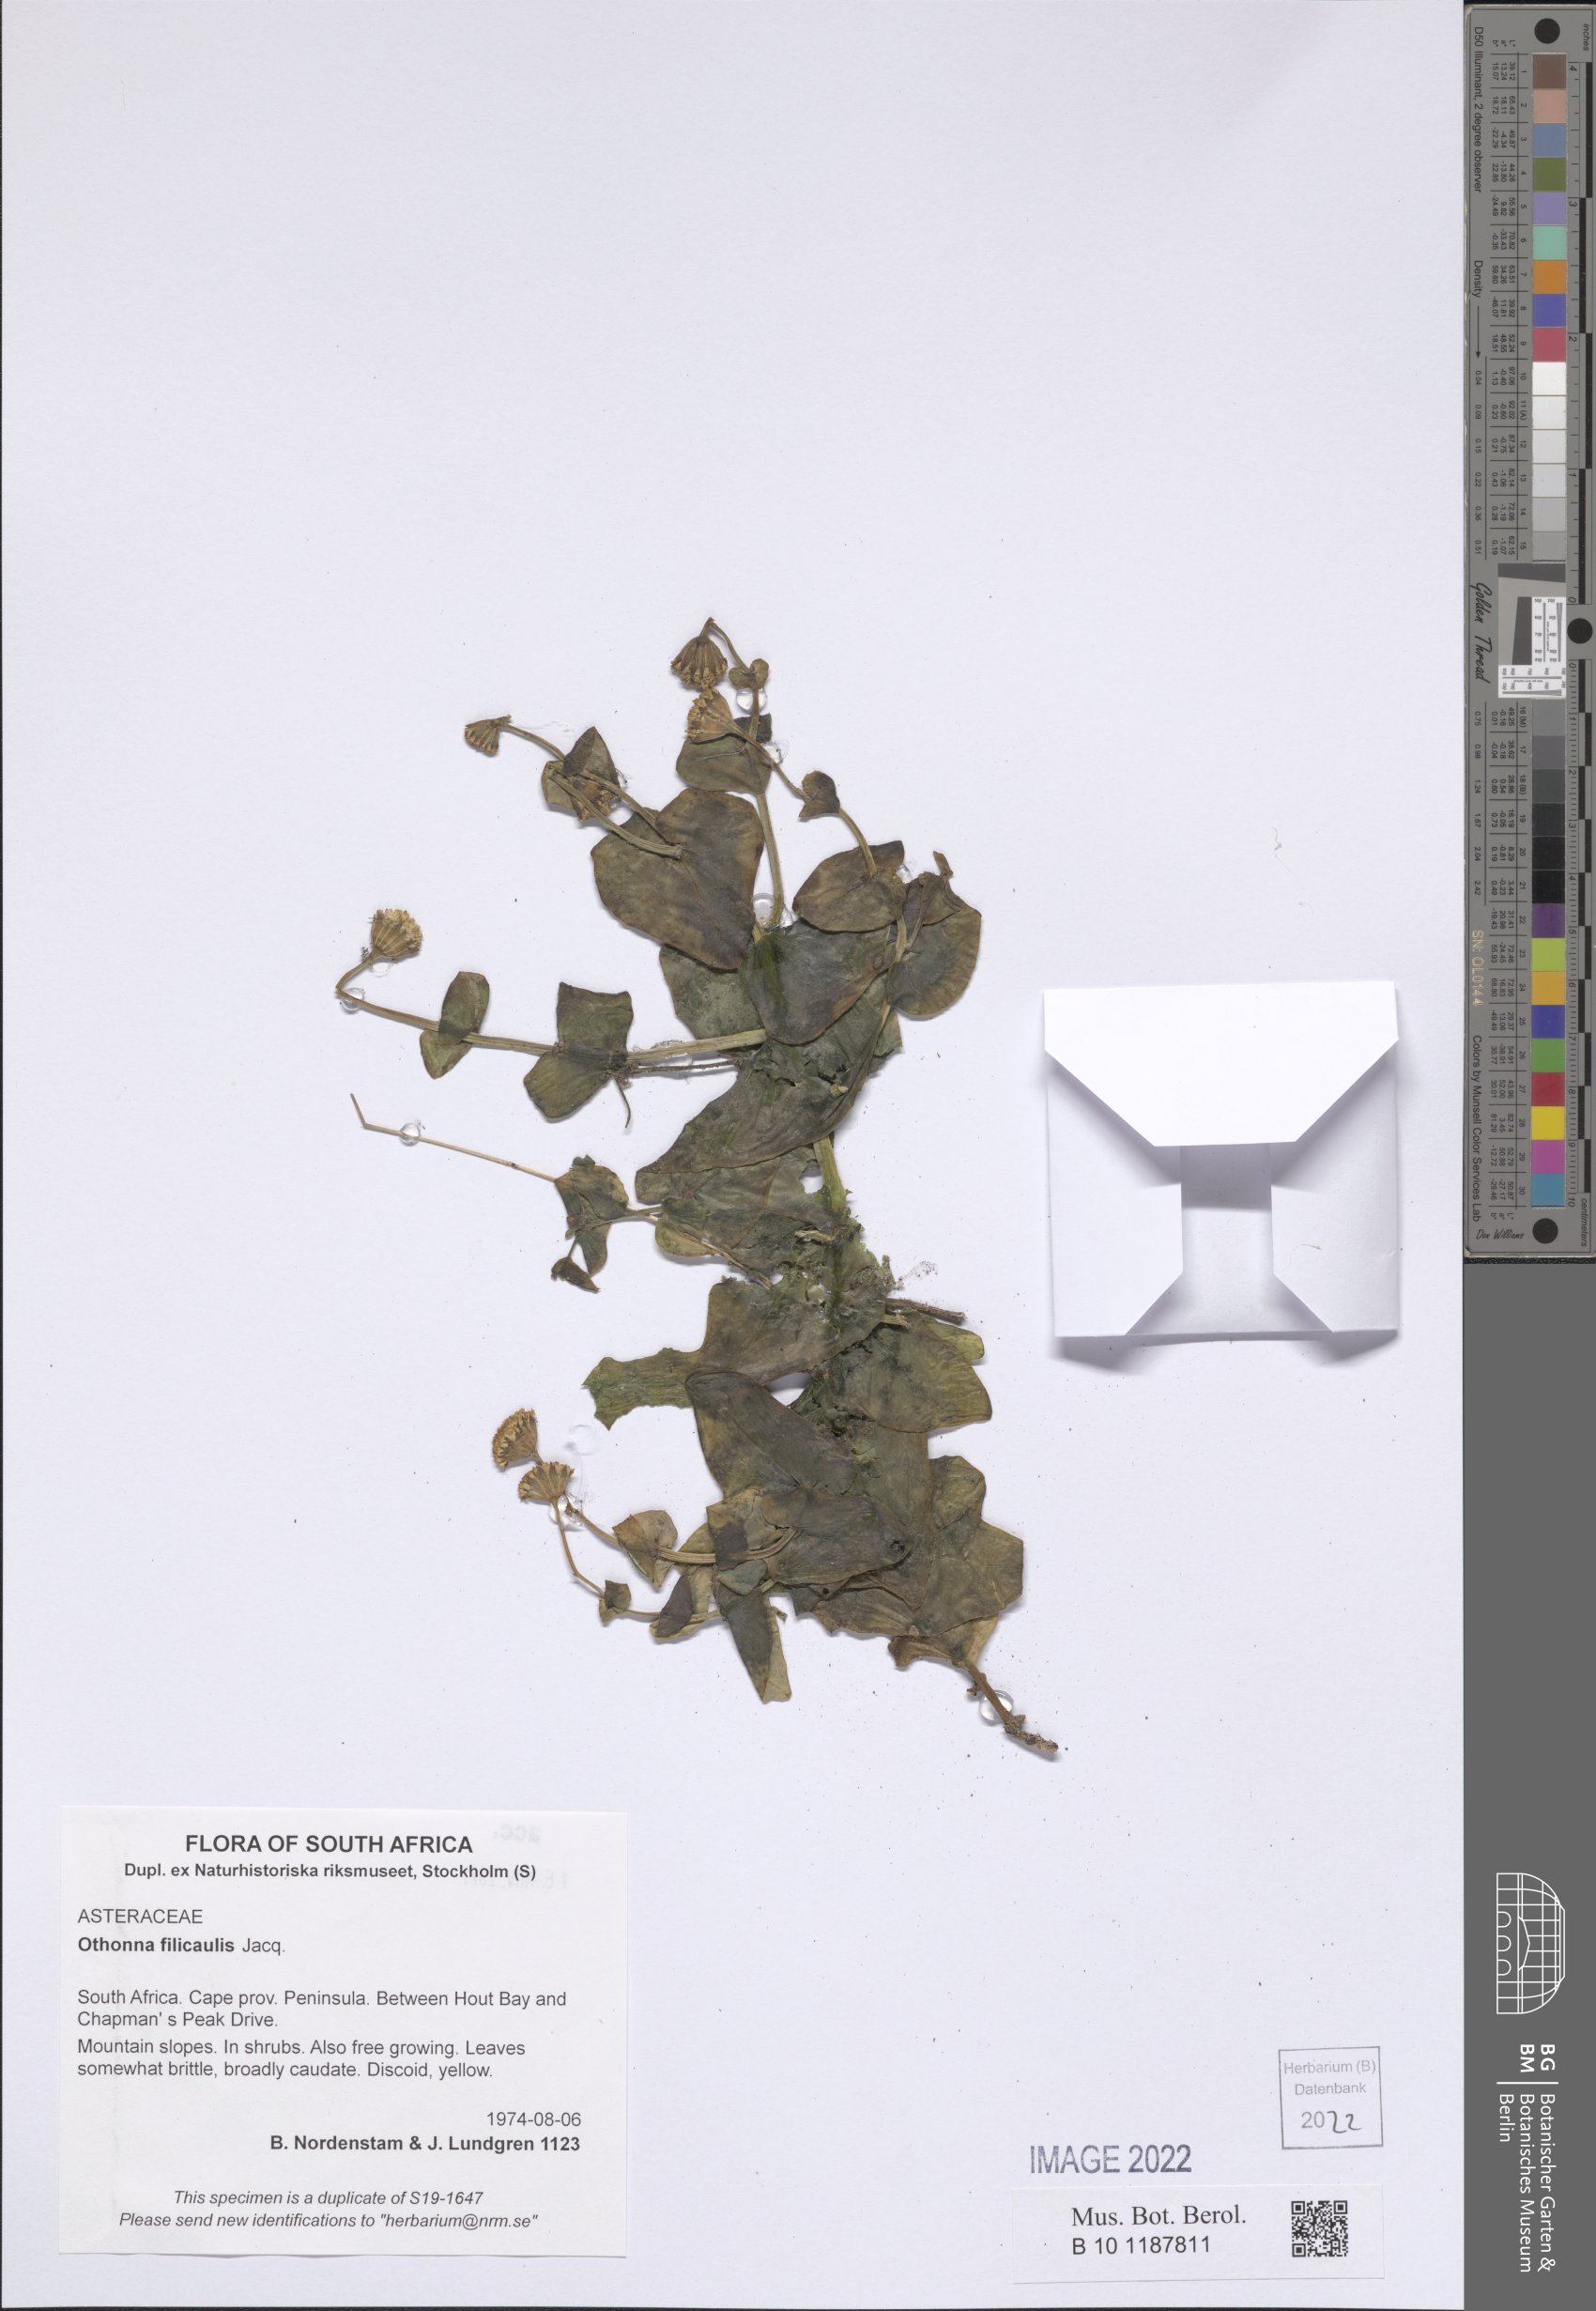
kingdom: Plantae
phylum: Tracheophyta
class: Magnoliopsida
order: Asterales
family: Asteraceae
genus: Othonna
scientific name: Othonna perfoliata
